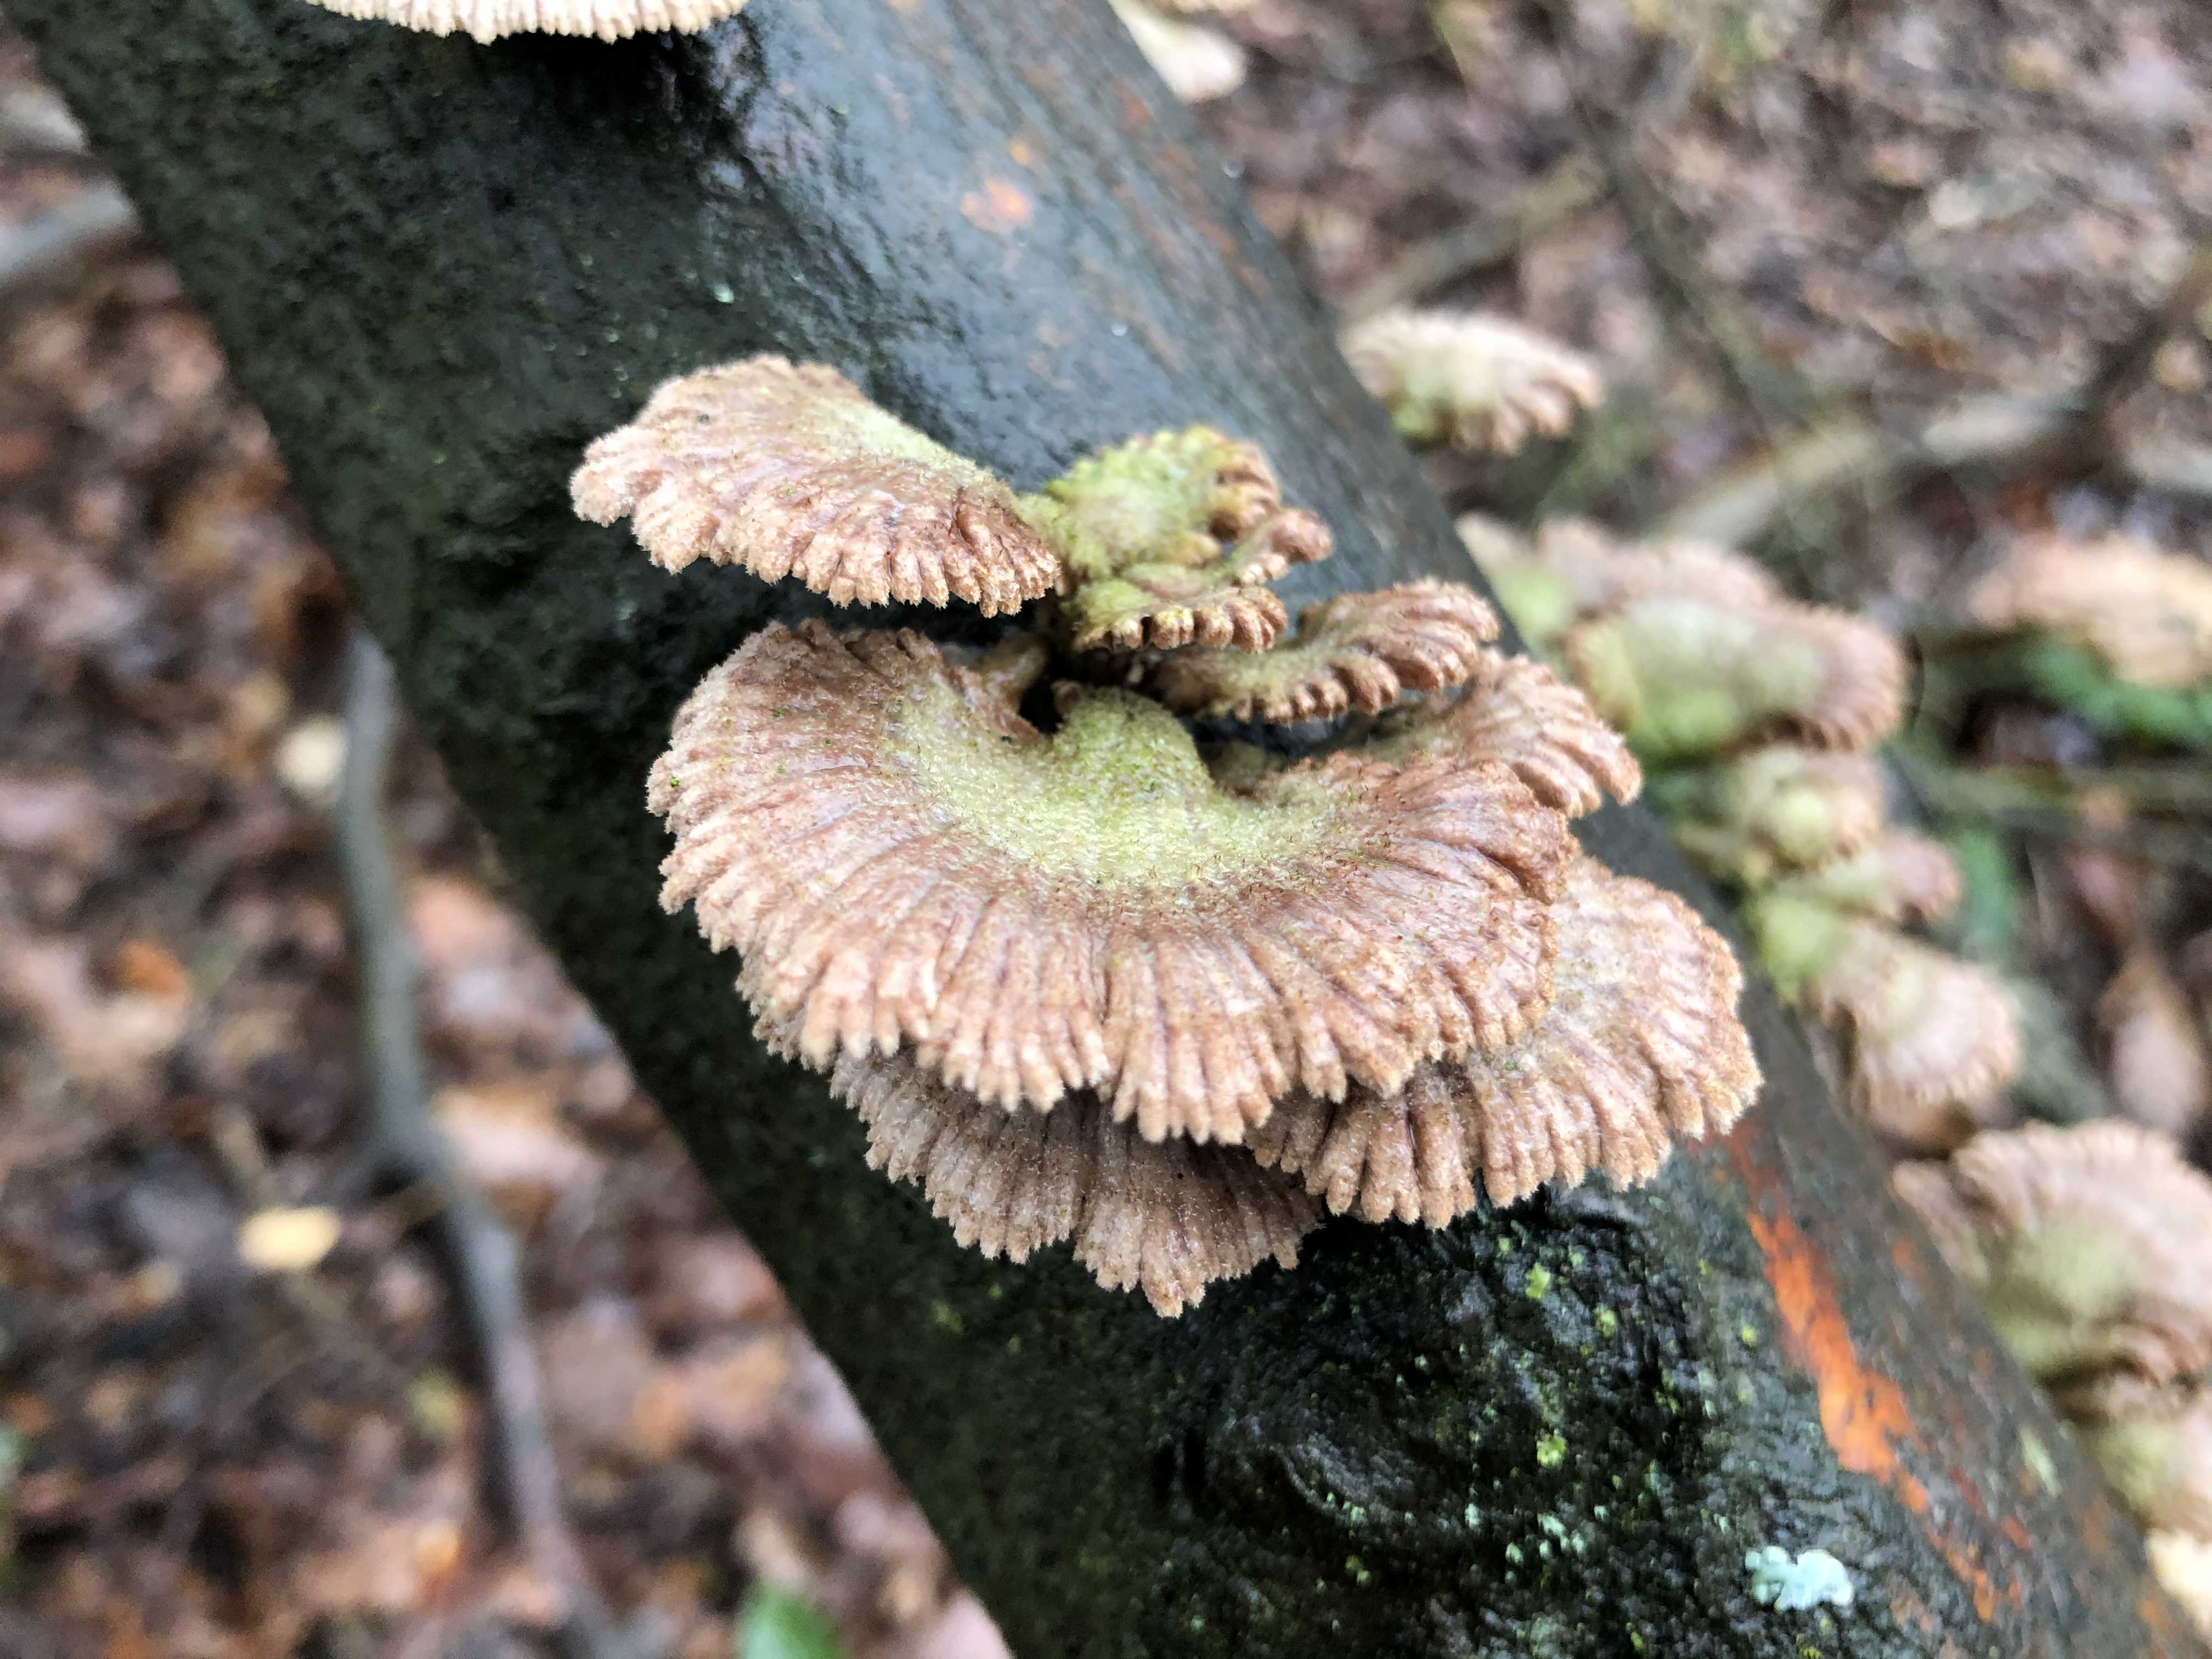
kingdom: Fungi
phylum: Basidiomycota
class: Agaricomycetes
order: Agaricales
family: Schizophyllaceae
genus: Schizophyllum
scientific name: Schizophyllum commune
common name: kløvblad
